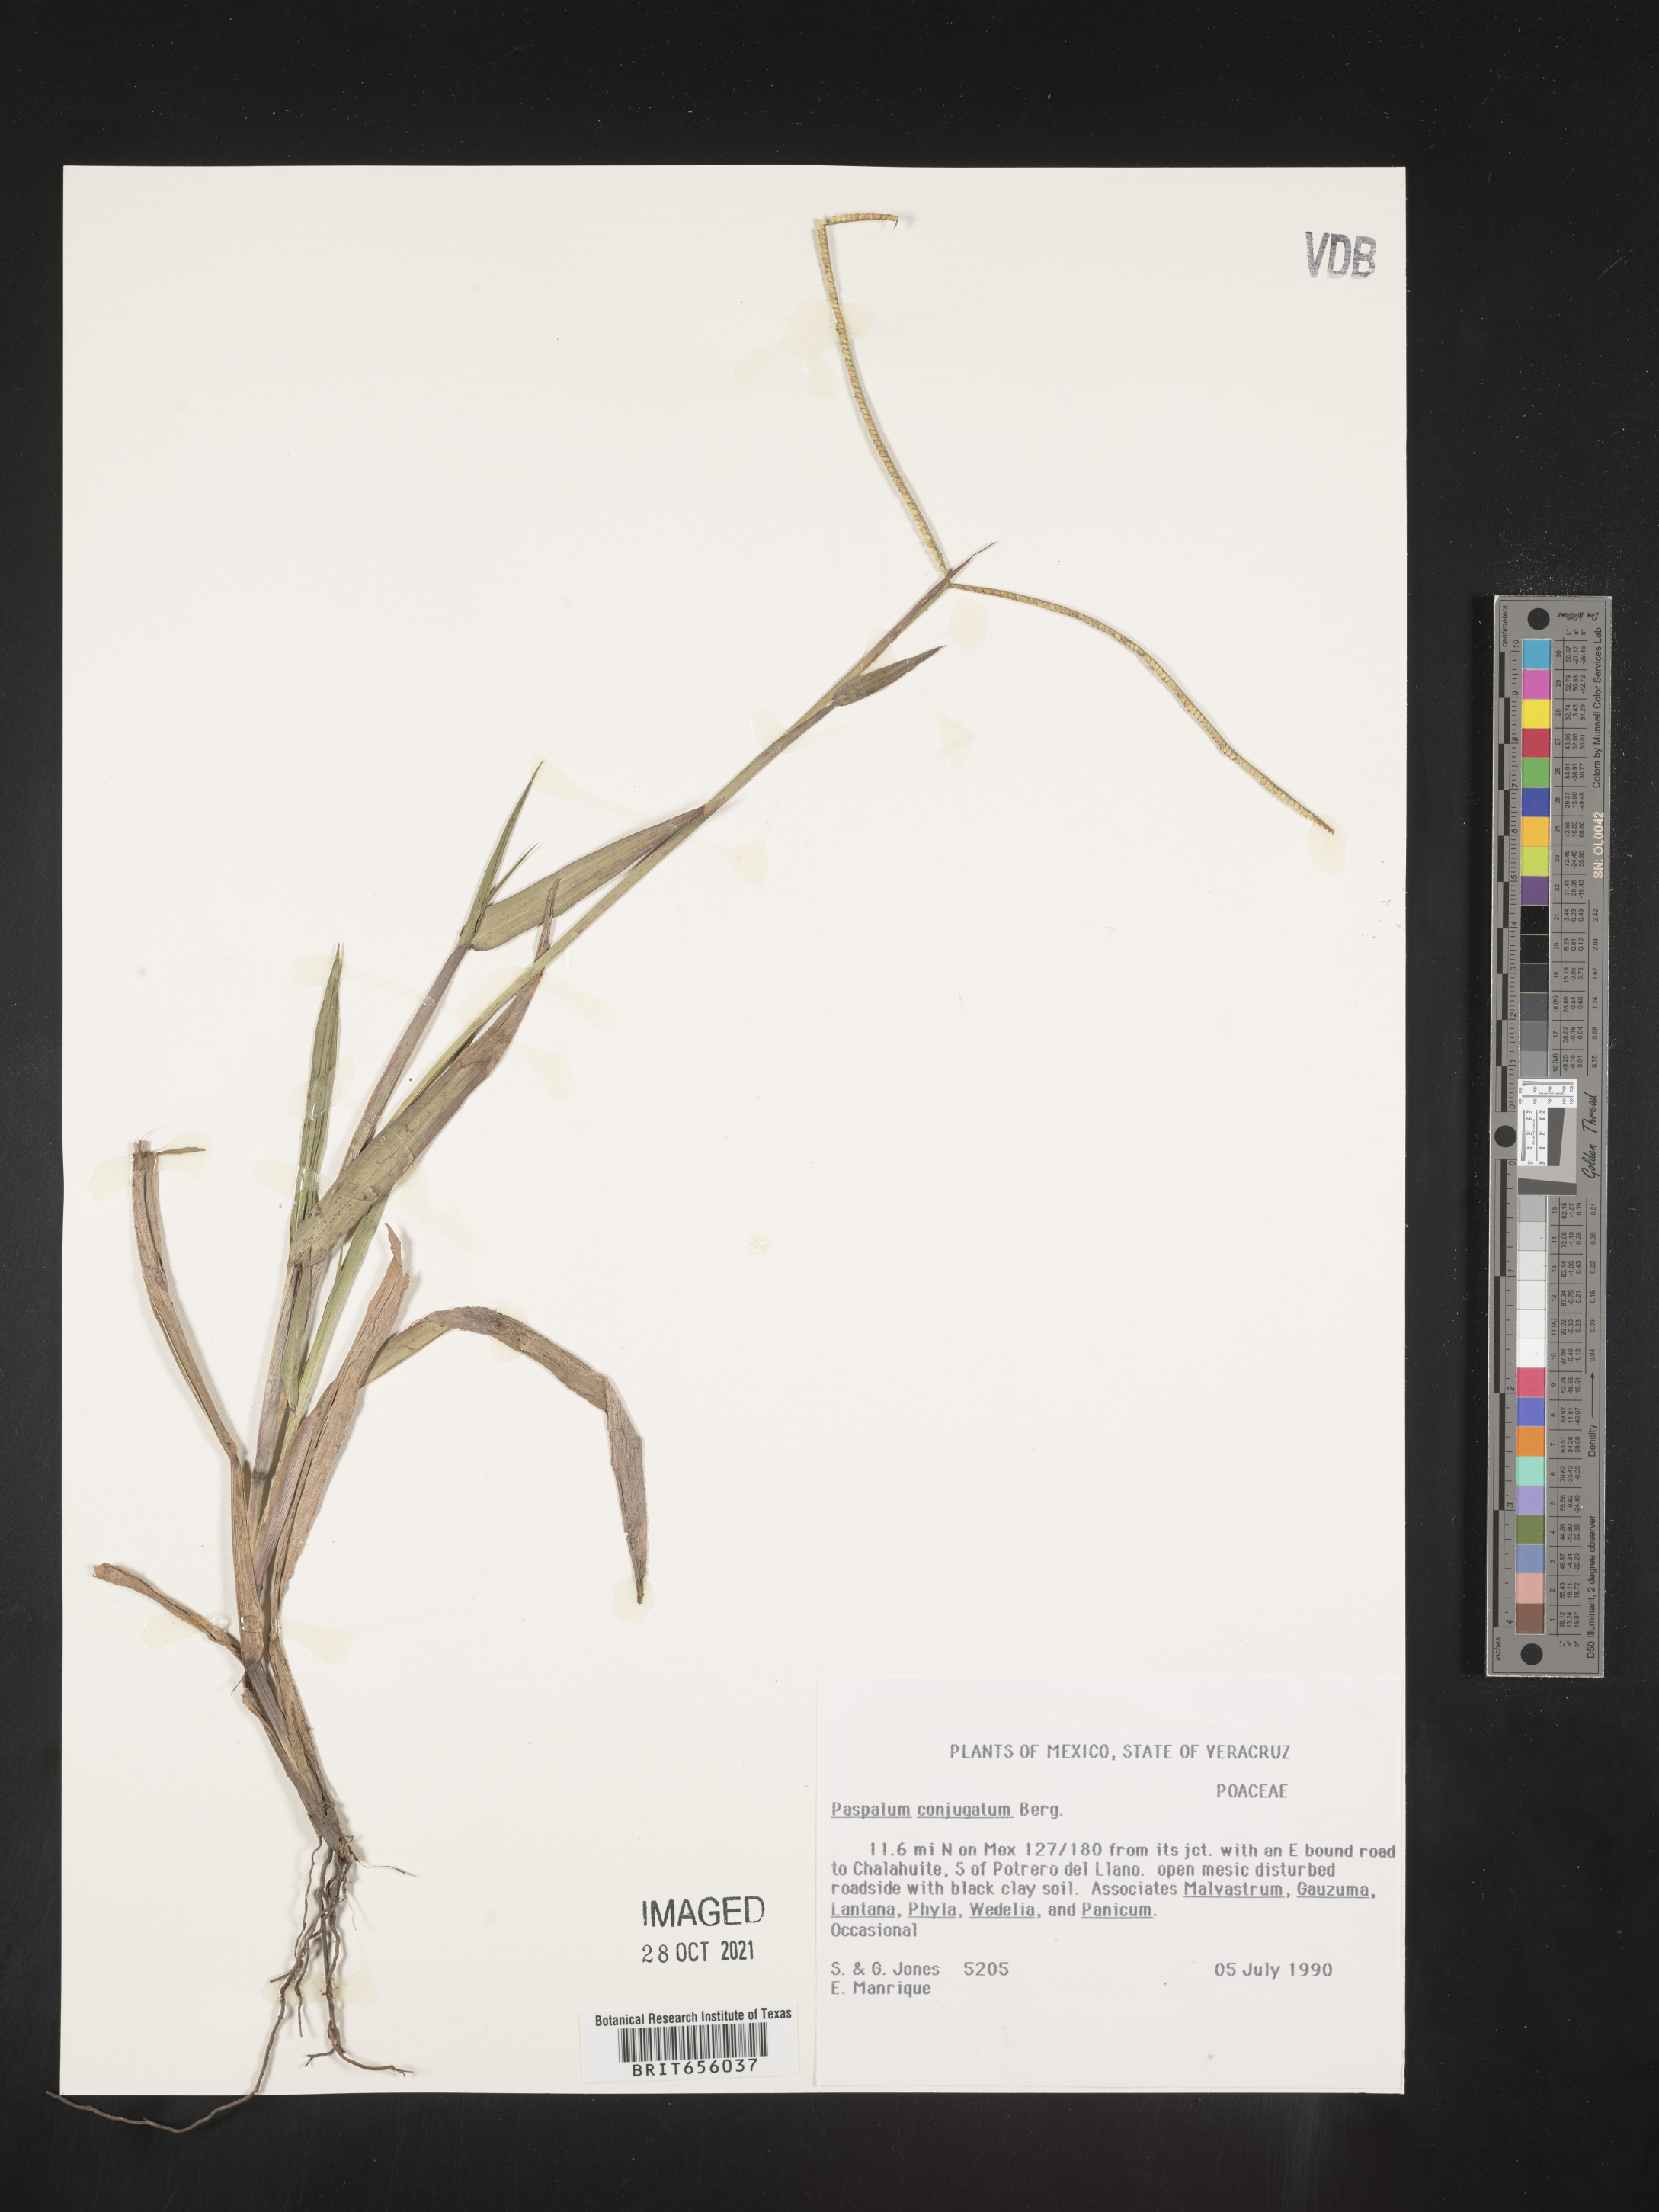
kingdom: Plantae
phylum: Tracheophyta
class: Liliopsida
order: Poales
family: Poaceae
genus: Paspalum
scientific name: Paspalum
